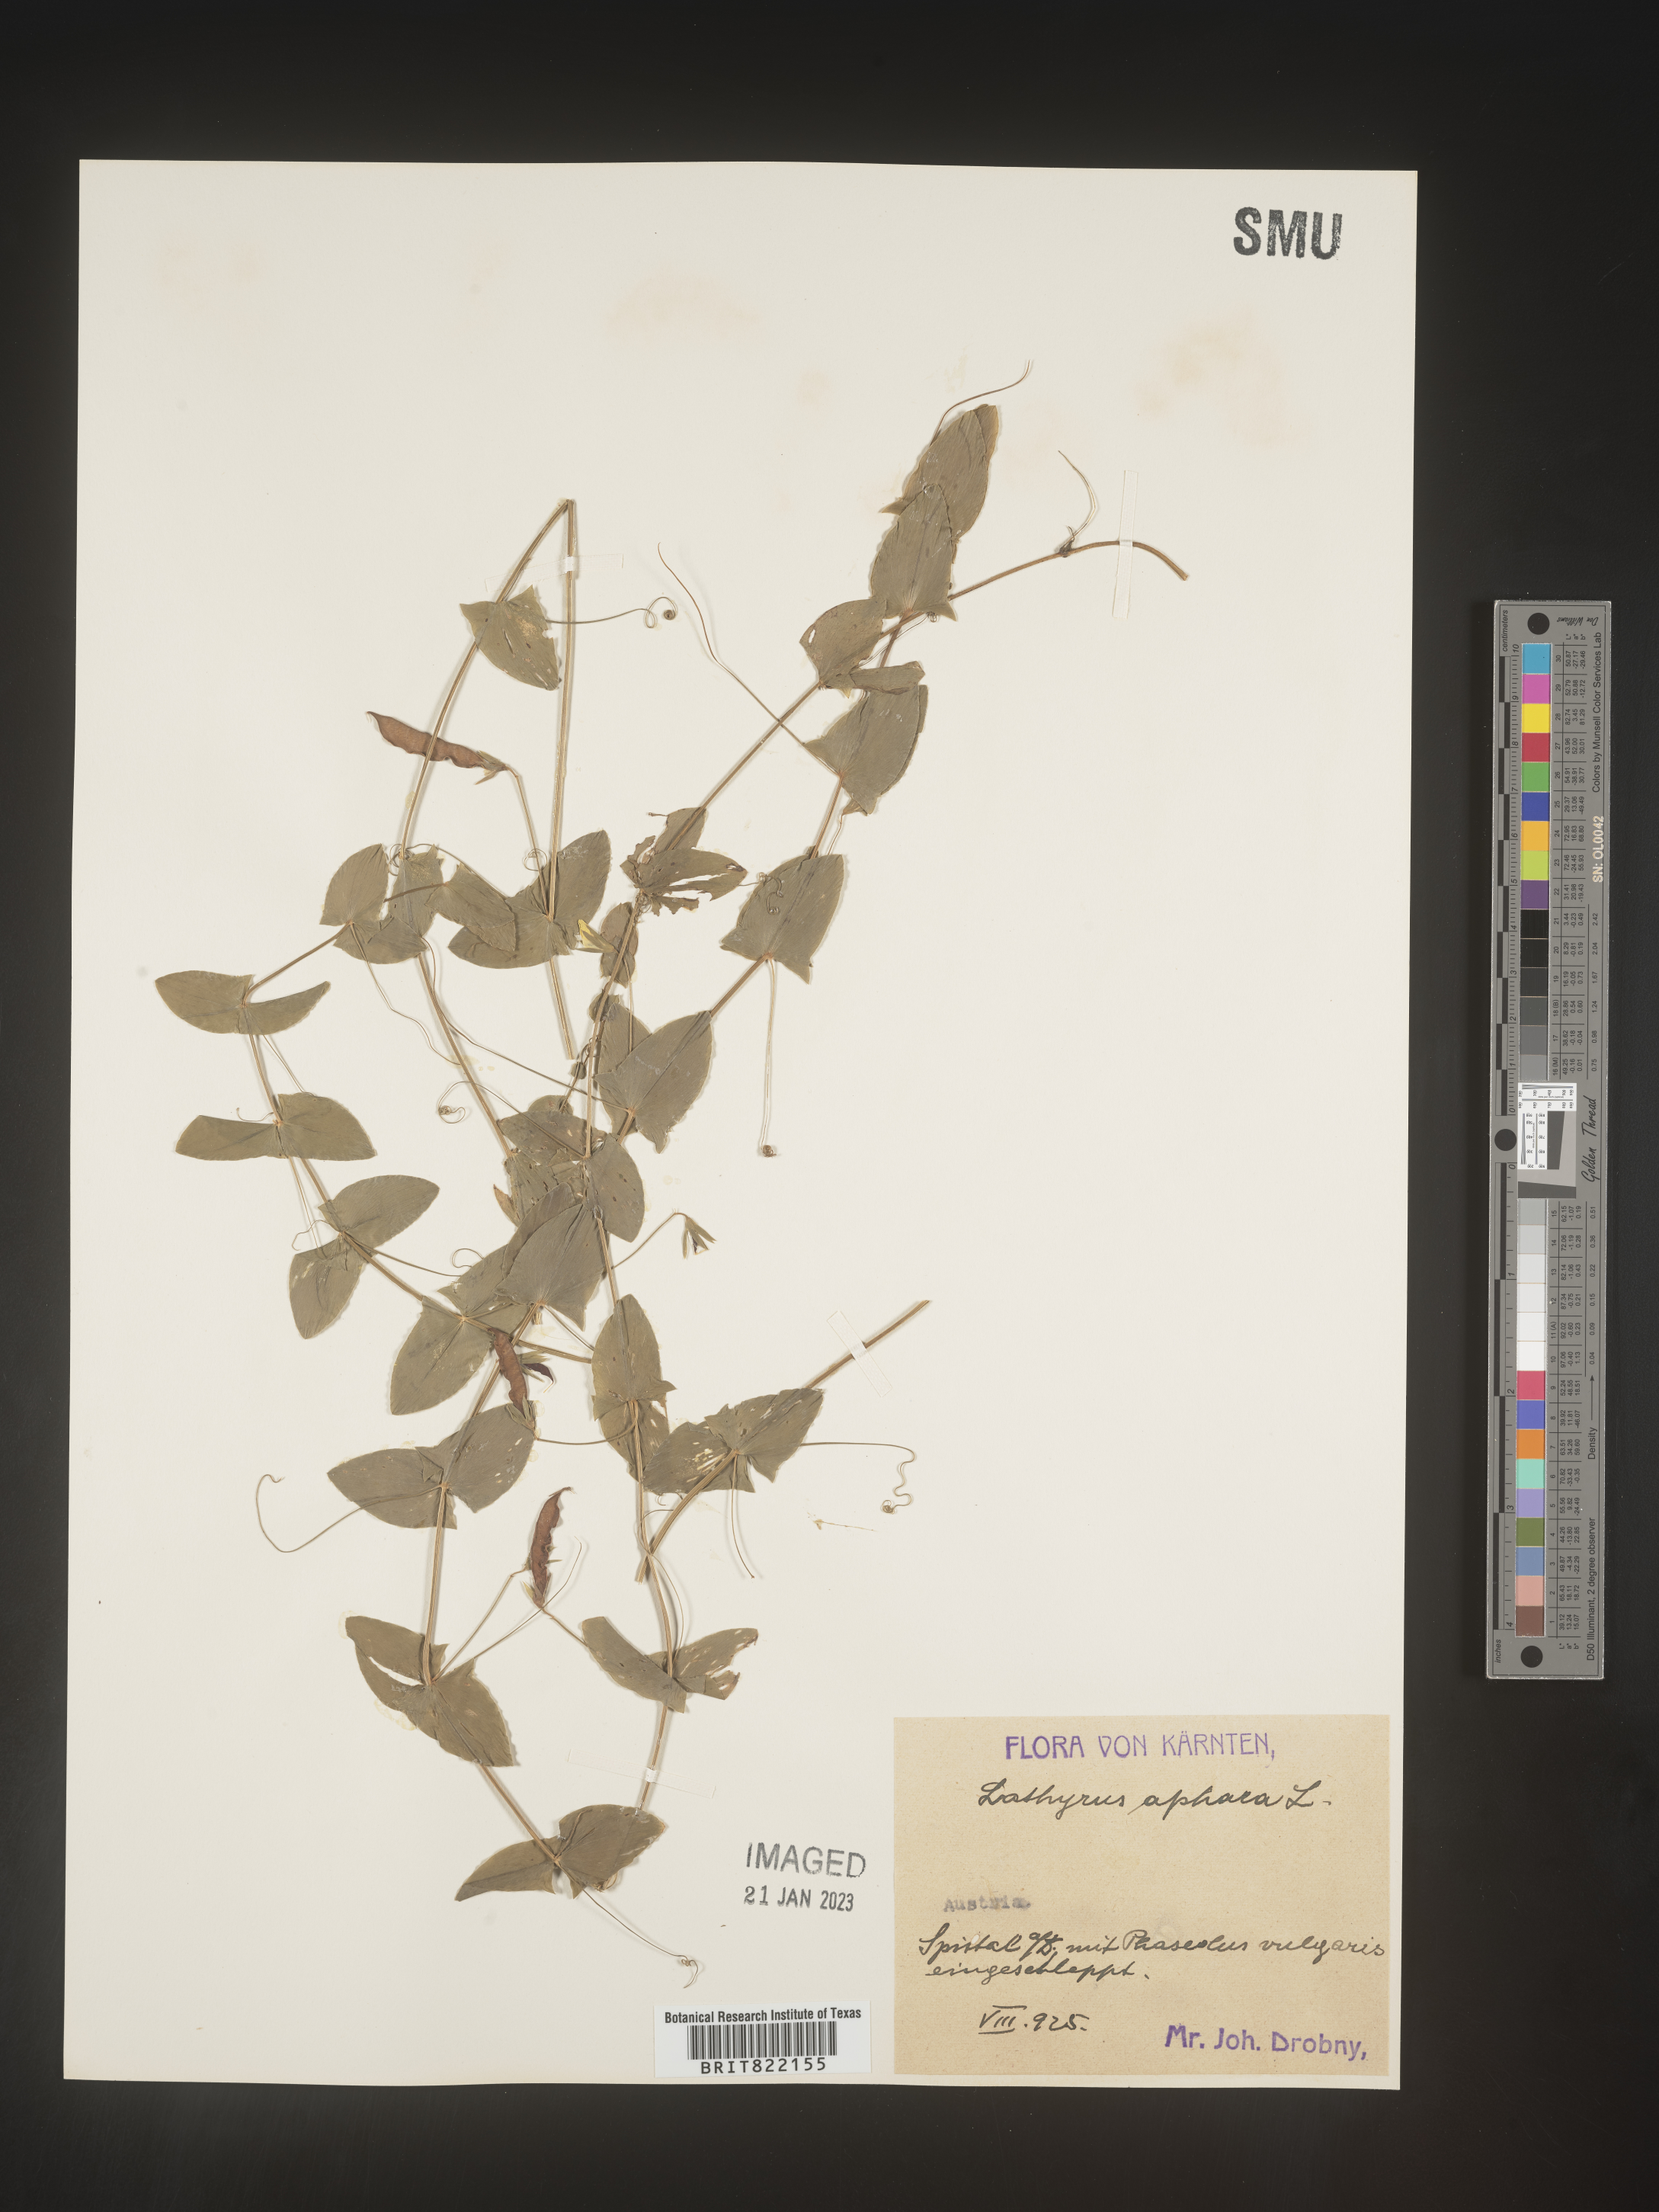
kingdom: Plantae
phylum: Tracheophyta
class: Magnoliopsida
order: Fabales
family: Fabaceae
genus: Lathyrus
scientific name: Lathyrus
